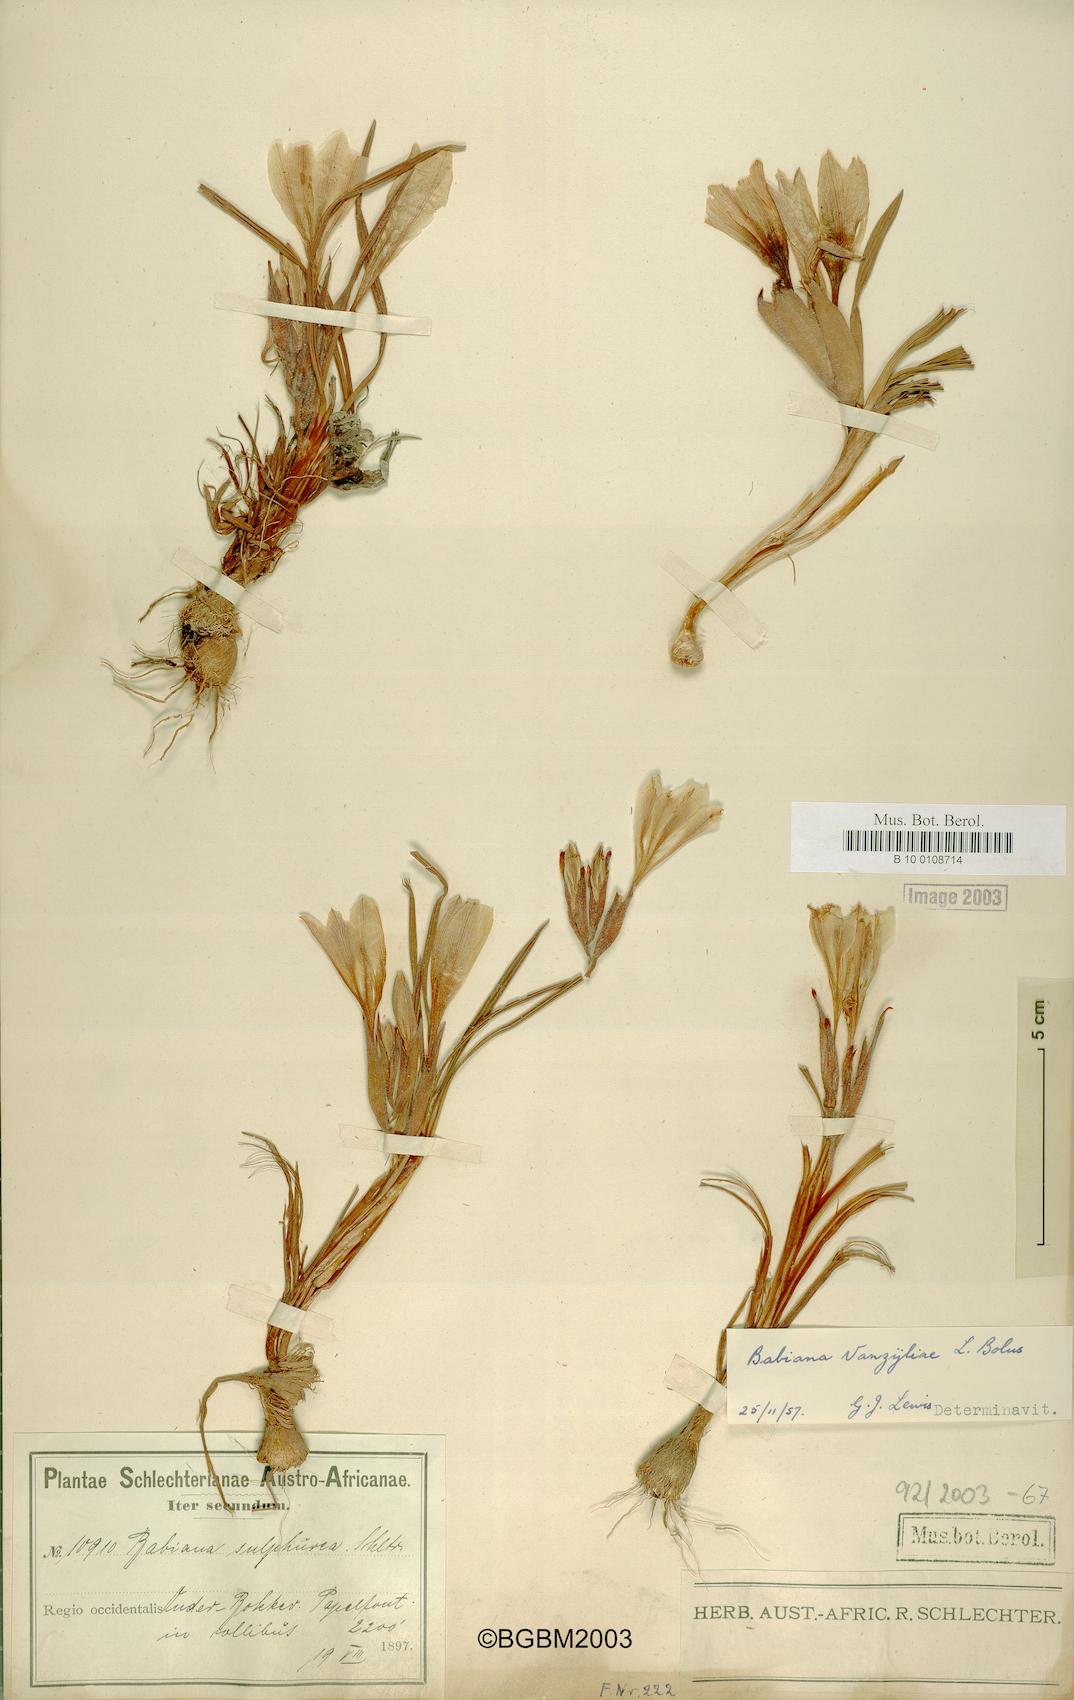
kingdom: Plantae
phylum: Tracheophyta
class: Liliopsida
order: Asparagales
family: Iridaceae
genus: Babiana
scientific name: Babiana vanzijliae
